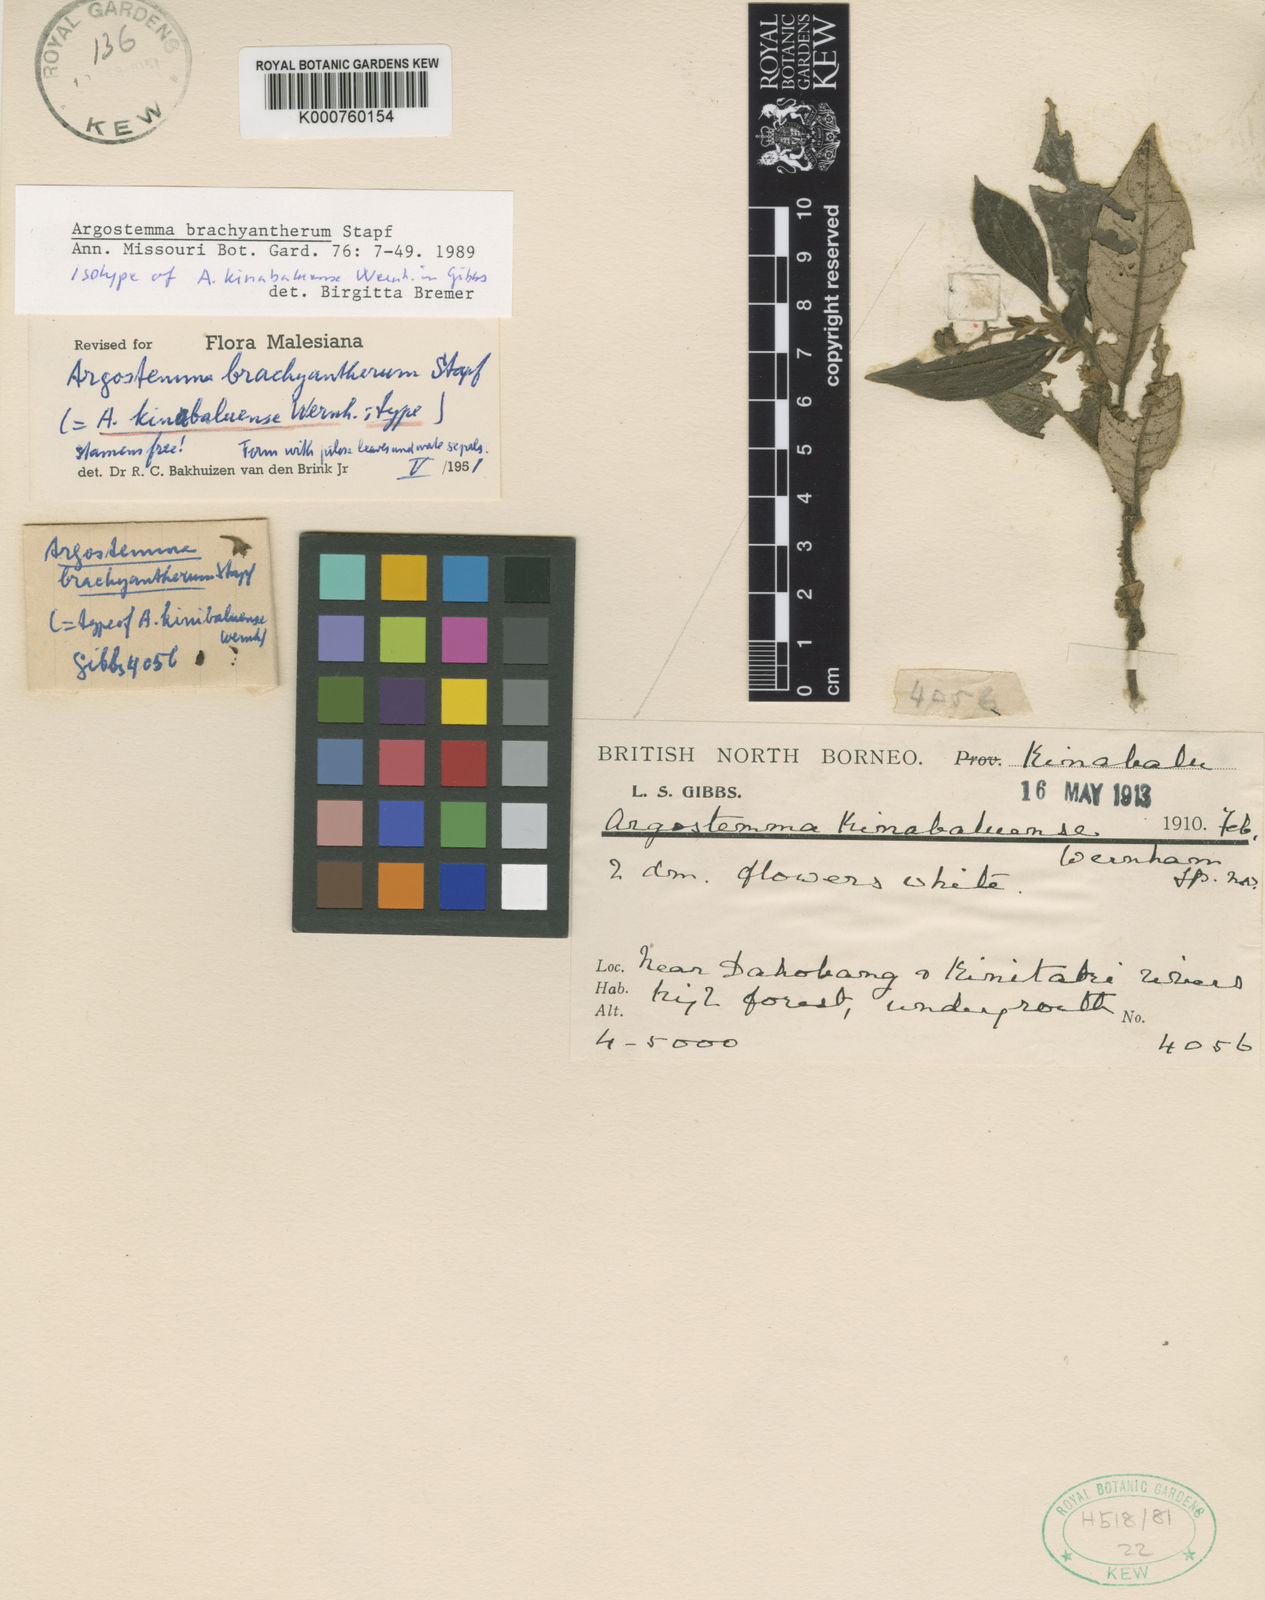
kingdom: Plantae
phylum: Tracheophyta
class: Magnoliopsida
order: Gentianales
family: Rubiaceae
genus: Argostemma
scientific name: Argostemma brachyantherum
